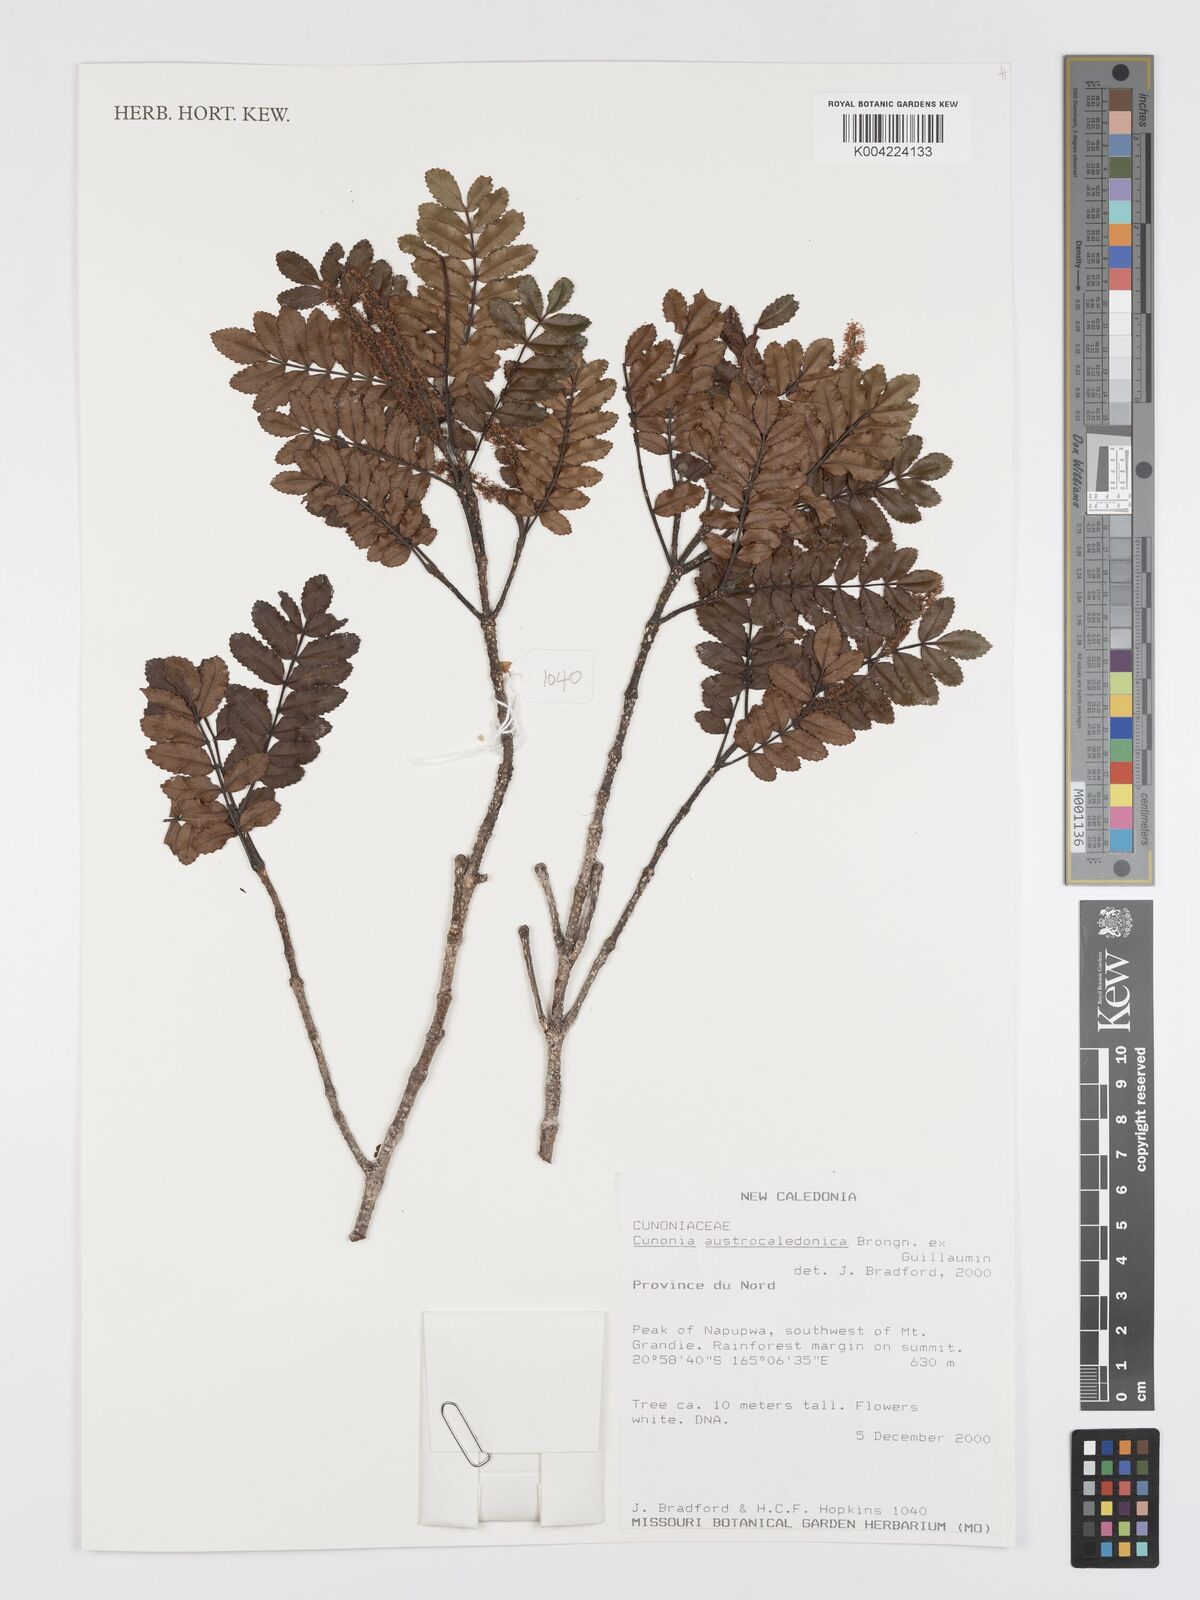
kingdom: Plantae
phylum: Tracheophyta
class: Magnoliopsida
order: Oxalidales
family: Cunoniaceae
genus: Cunonia
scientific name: Cunonia austrocaledonica
